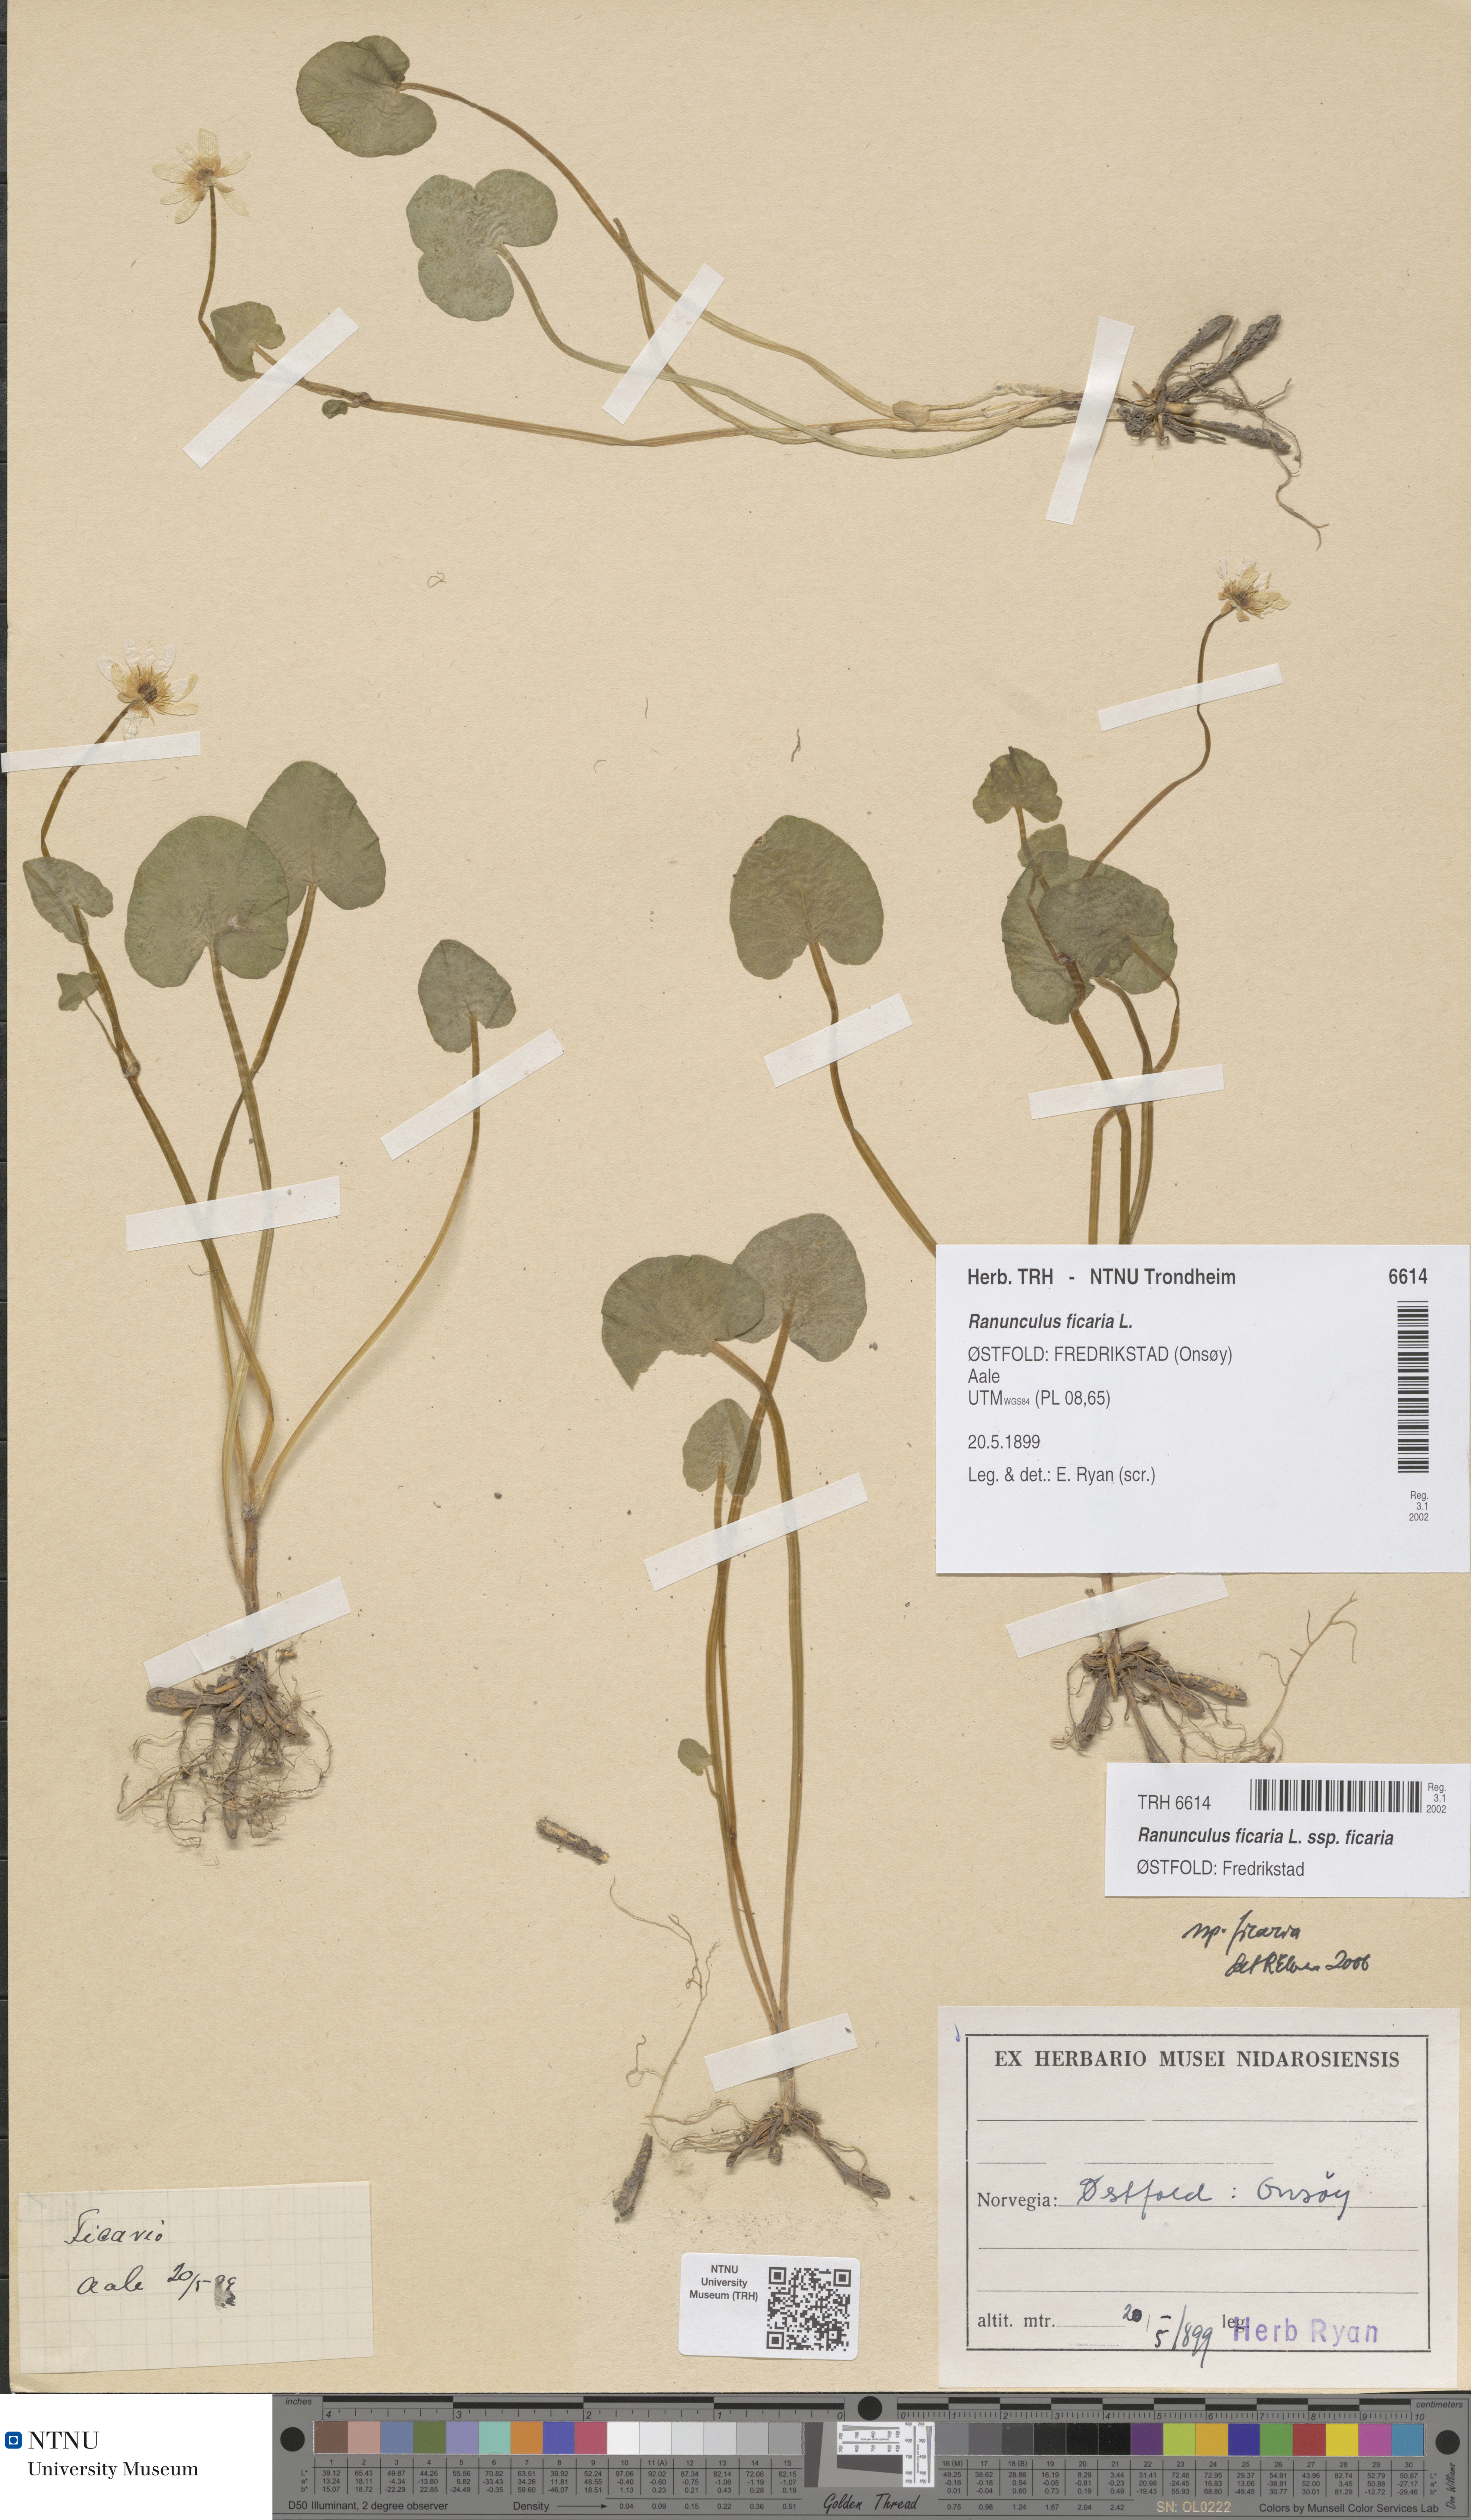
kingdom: Plantae
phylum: Tracheophyta
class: Magnoliopsida
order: Ranunculales
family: Ranunculaceae
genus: Ficaria
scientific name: Ficaria verna
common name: Lesser celandine
